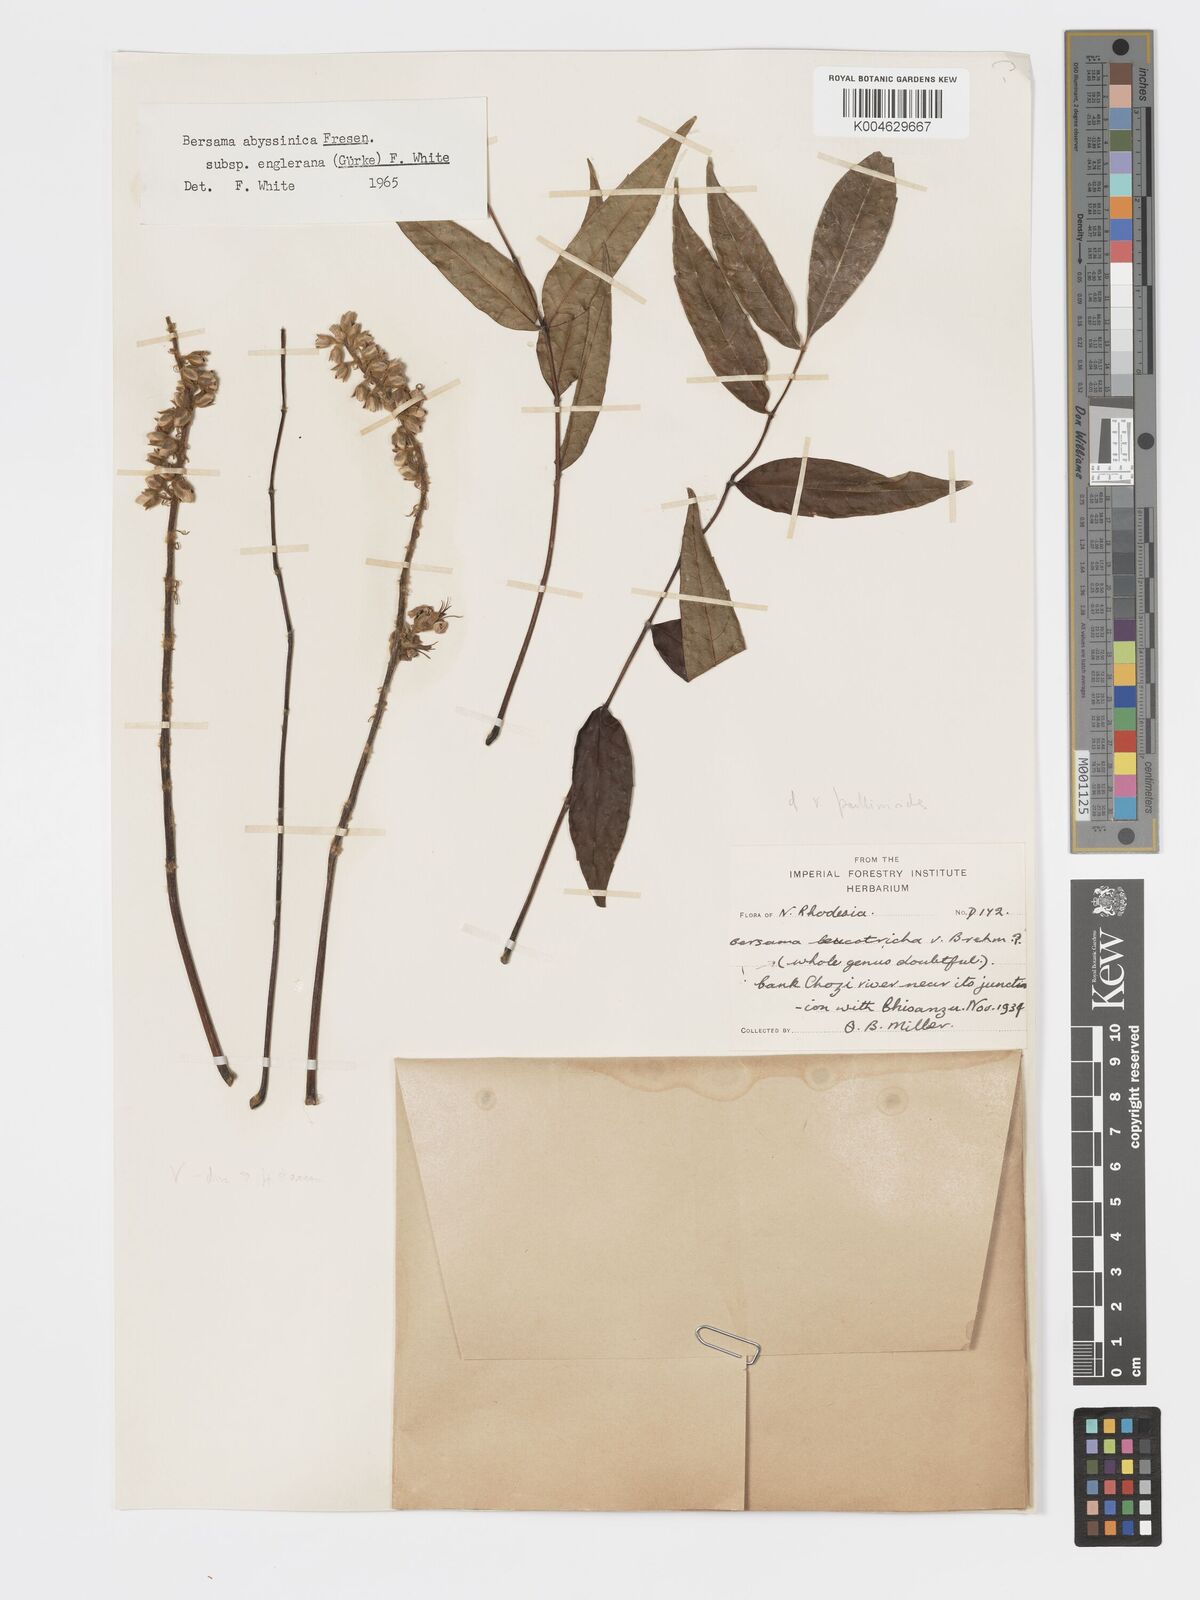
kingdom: Plantae
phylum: Tracheophyta
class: Magnoliopsida
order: Geraniales
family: Melianthaceae
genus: Bersama
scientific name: Bersama abyssinica
